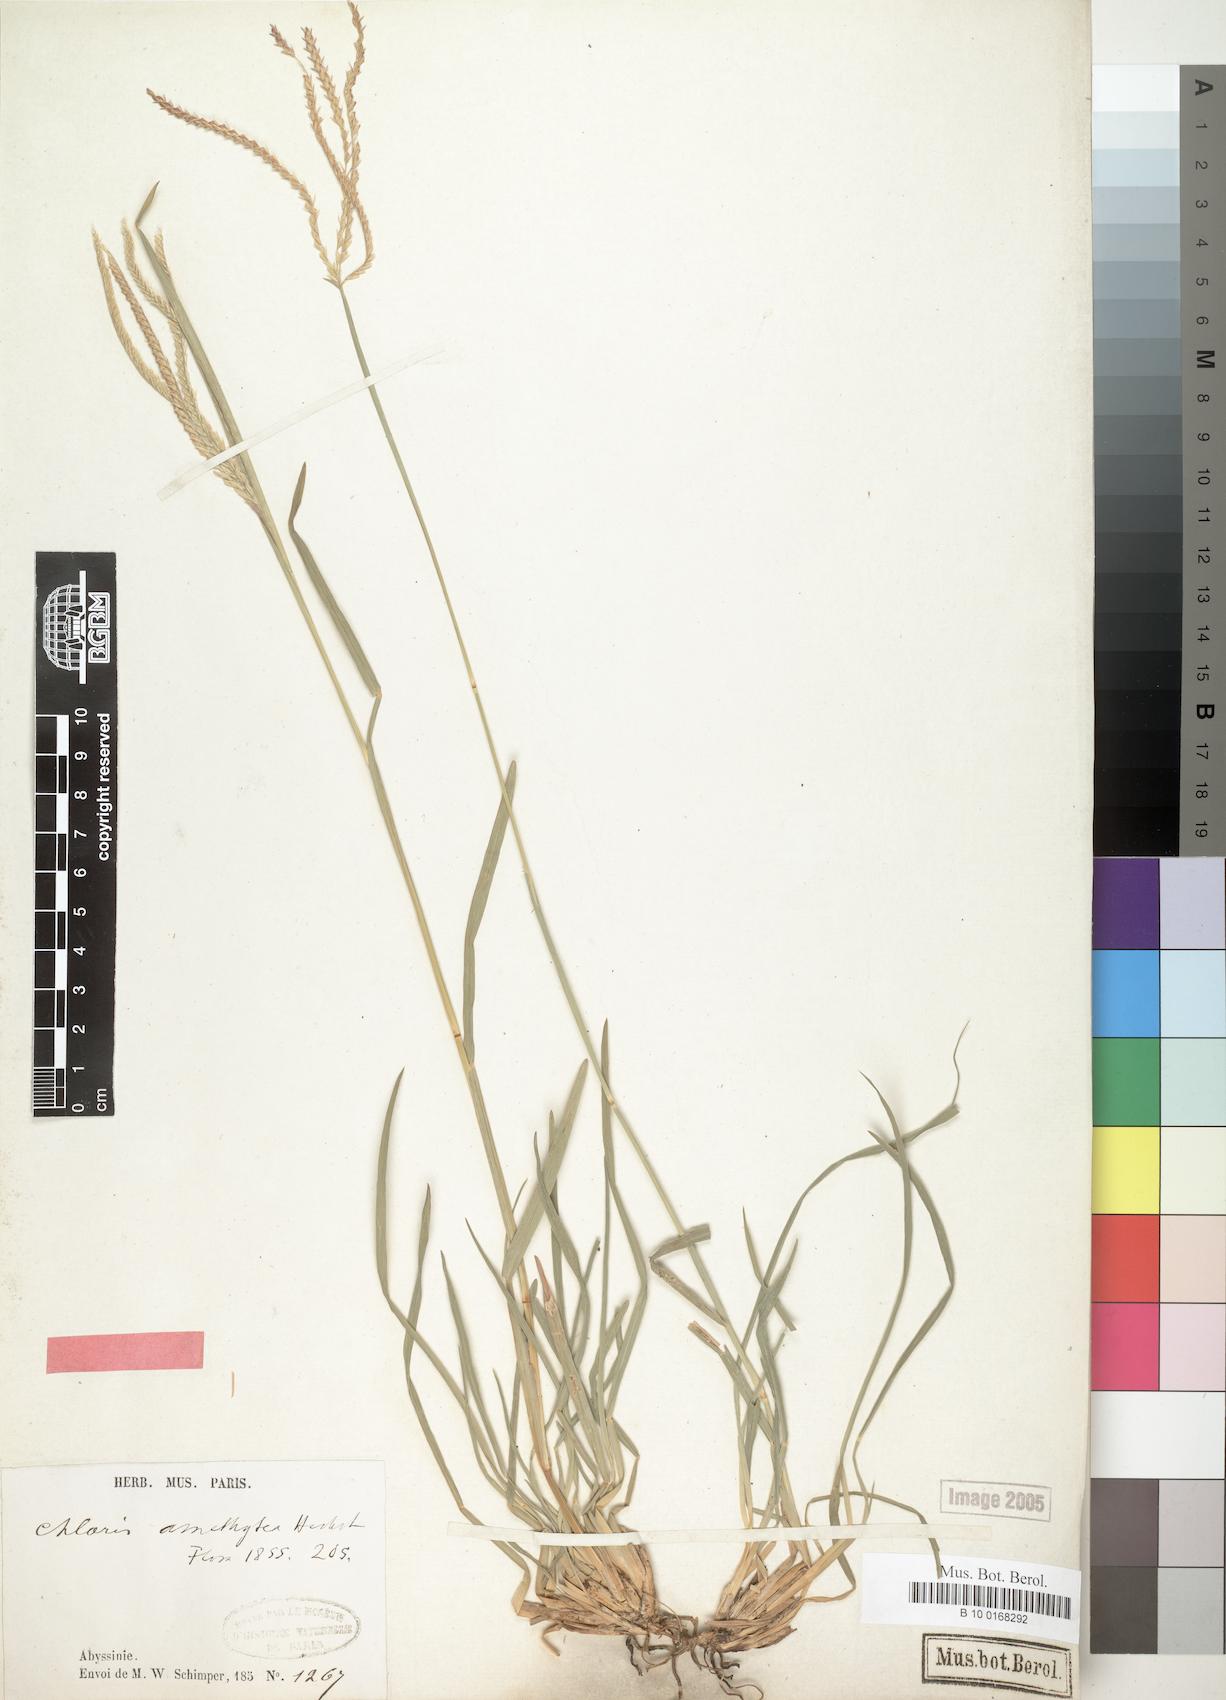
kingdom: Plantae
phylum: Tracheophyta
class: Liliopsida
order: Poales
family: Poaceae
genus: Chloris
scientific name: Chloris amethystea
